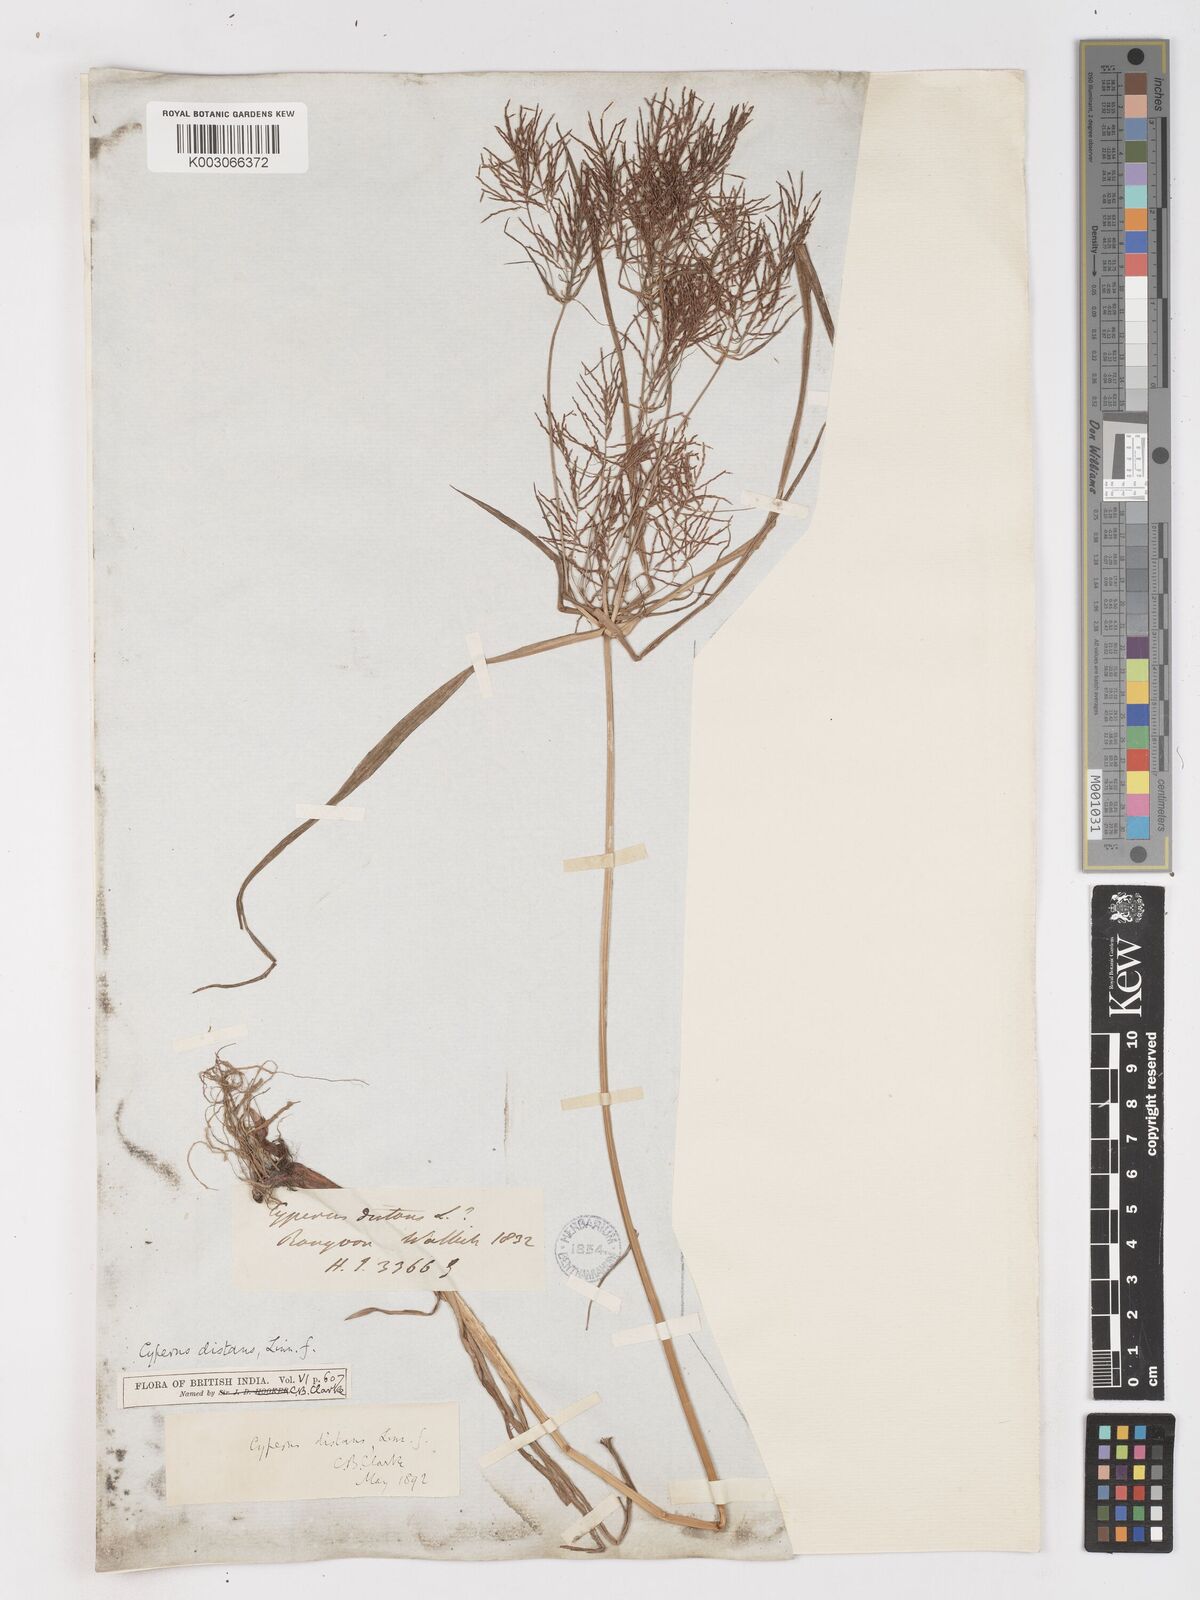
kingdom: Plantae
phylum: Tracheophyta
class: Liliopsida
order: Poales
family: Cyperaceae
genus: Cyperus
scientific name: Cyperus distans
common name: Slender cyperus
